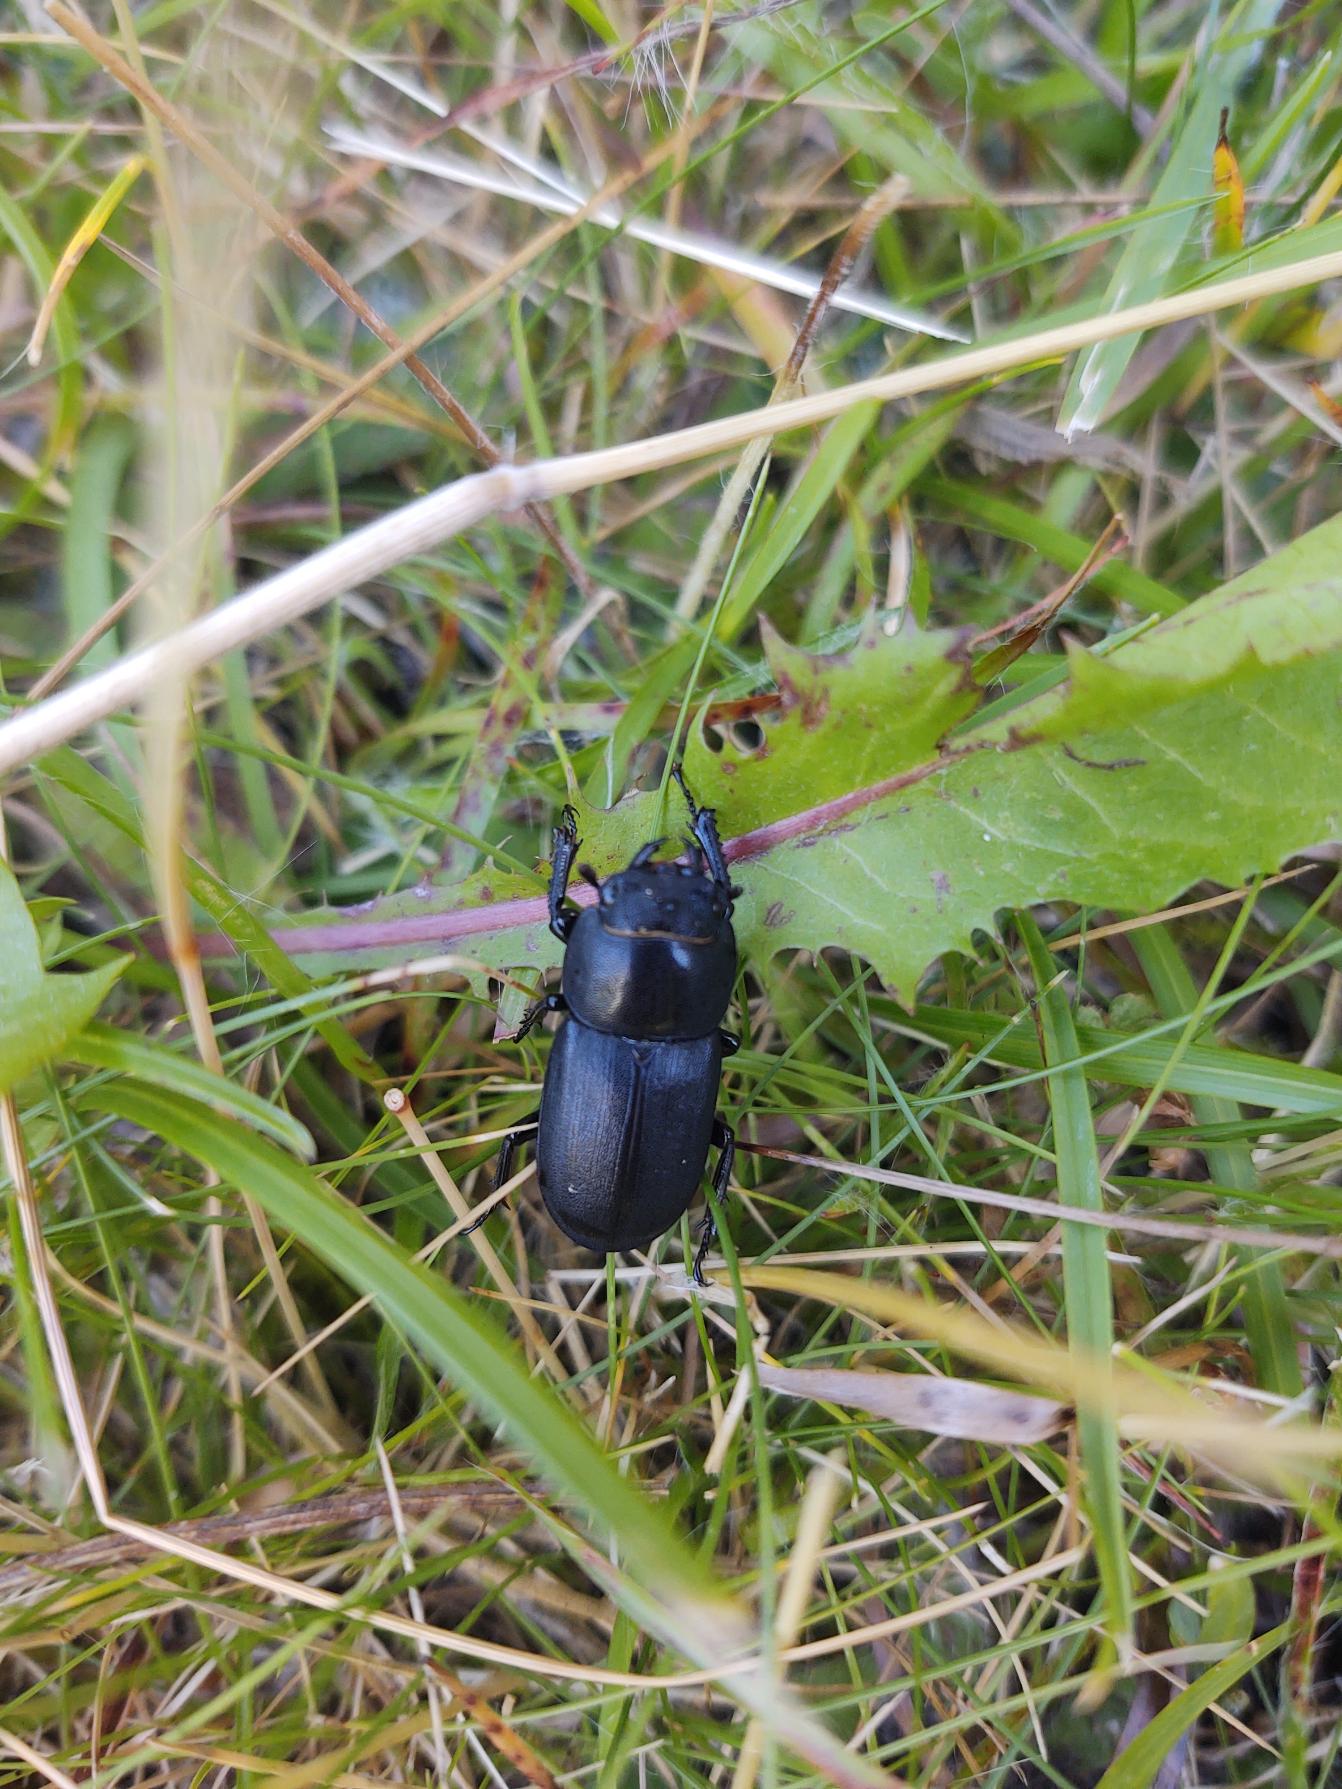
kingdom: Animalia
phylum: Arthropoda
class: Insecta
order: Coleoptera
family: Lucanidae
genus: Dorcus
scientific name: Dorcus parallelipipedus
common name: Bøghjort
